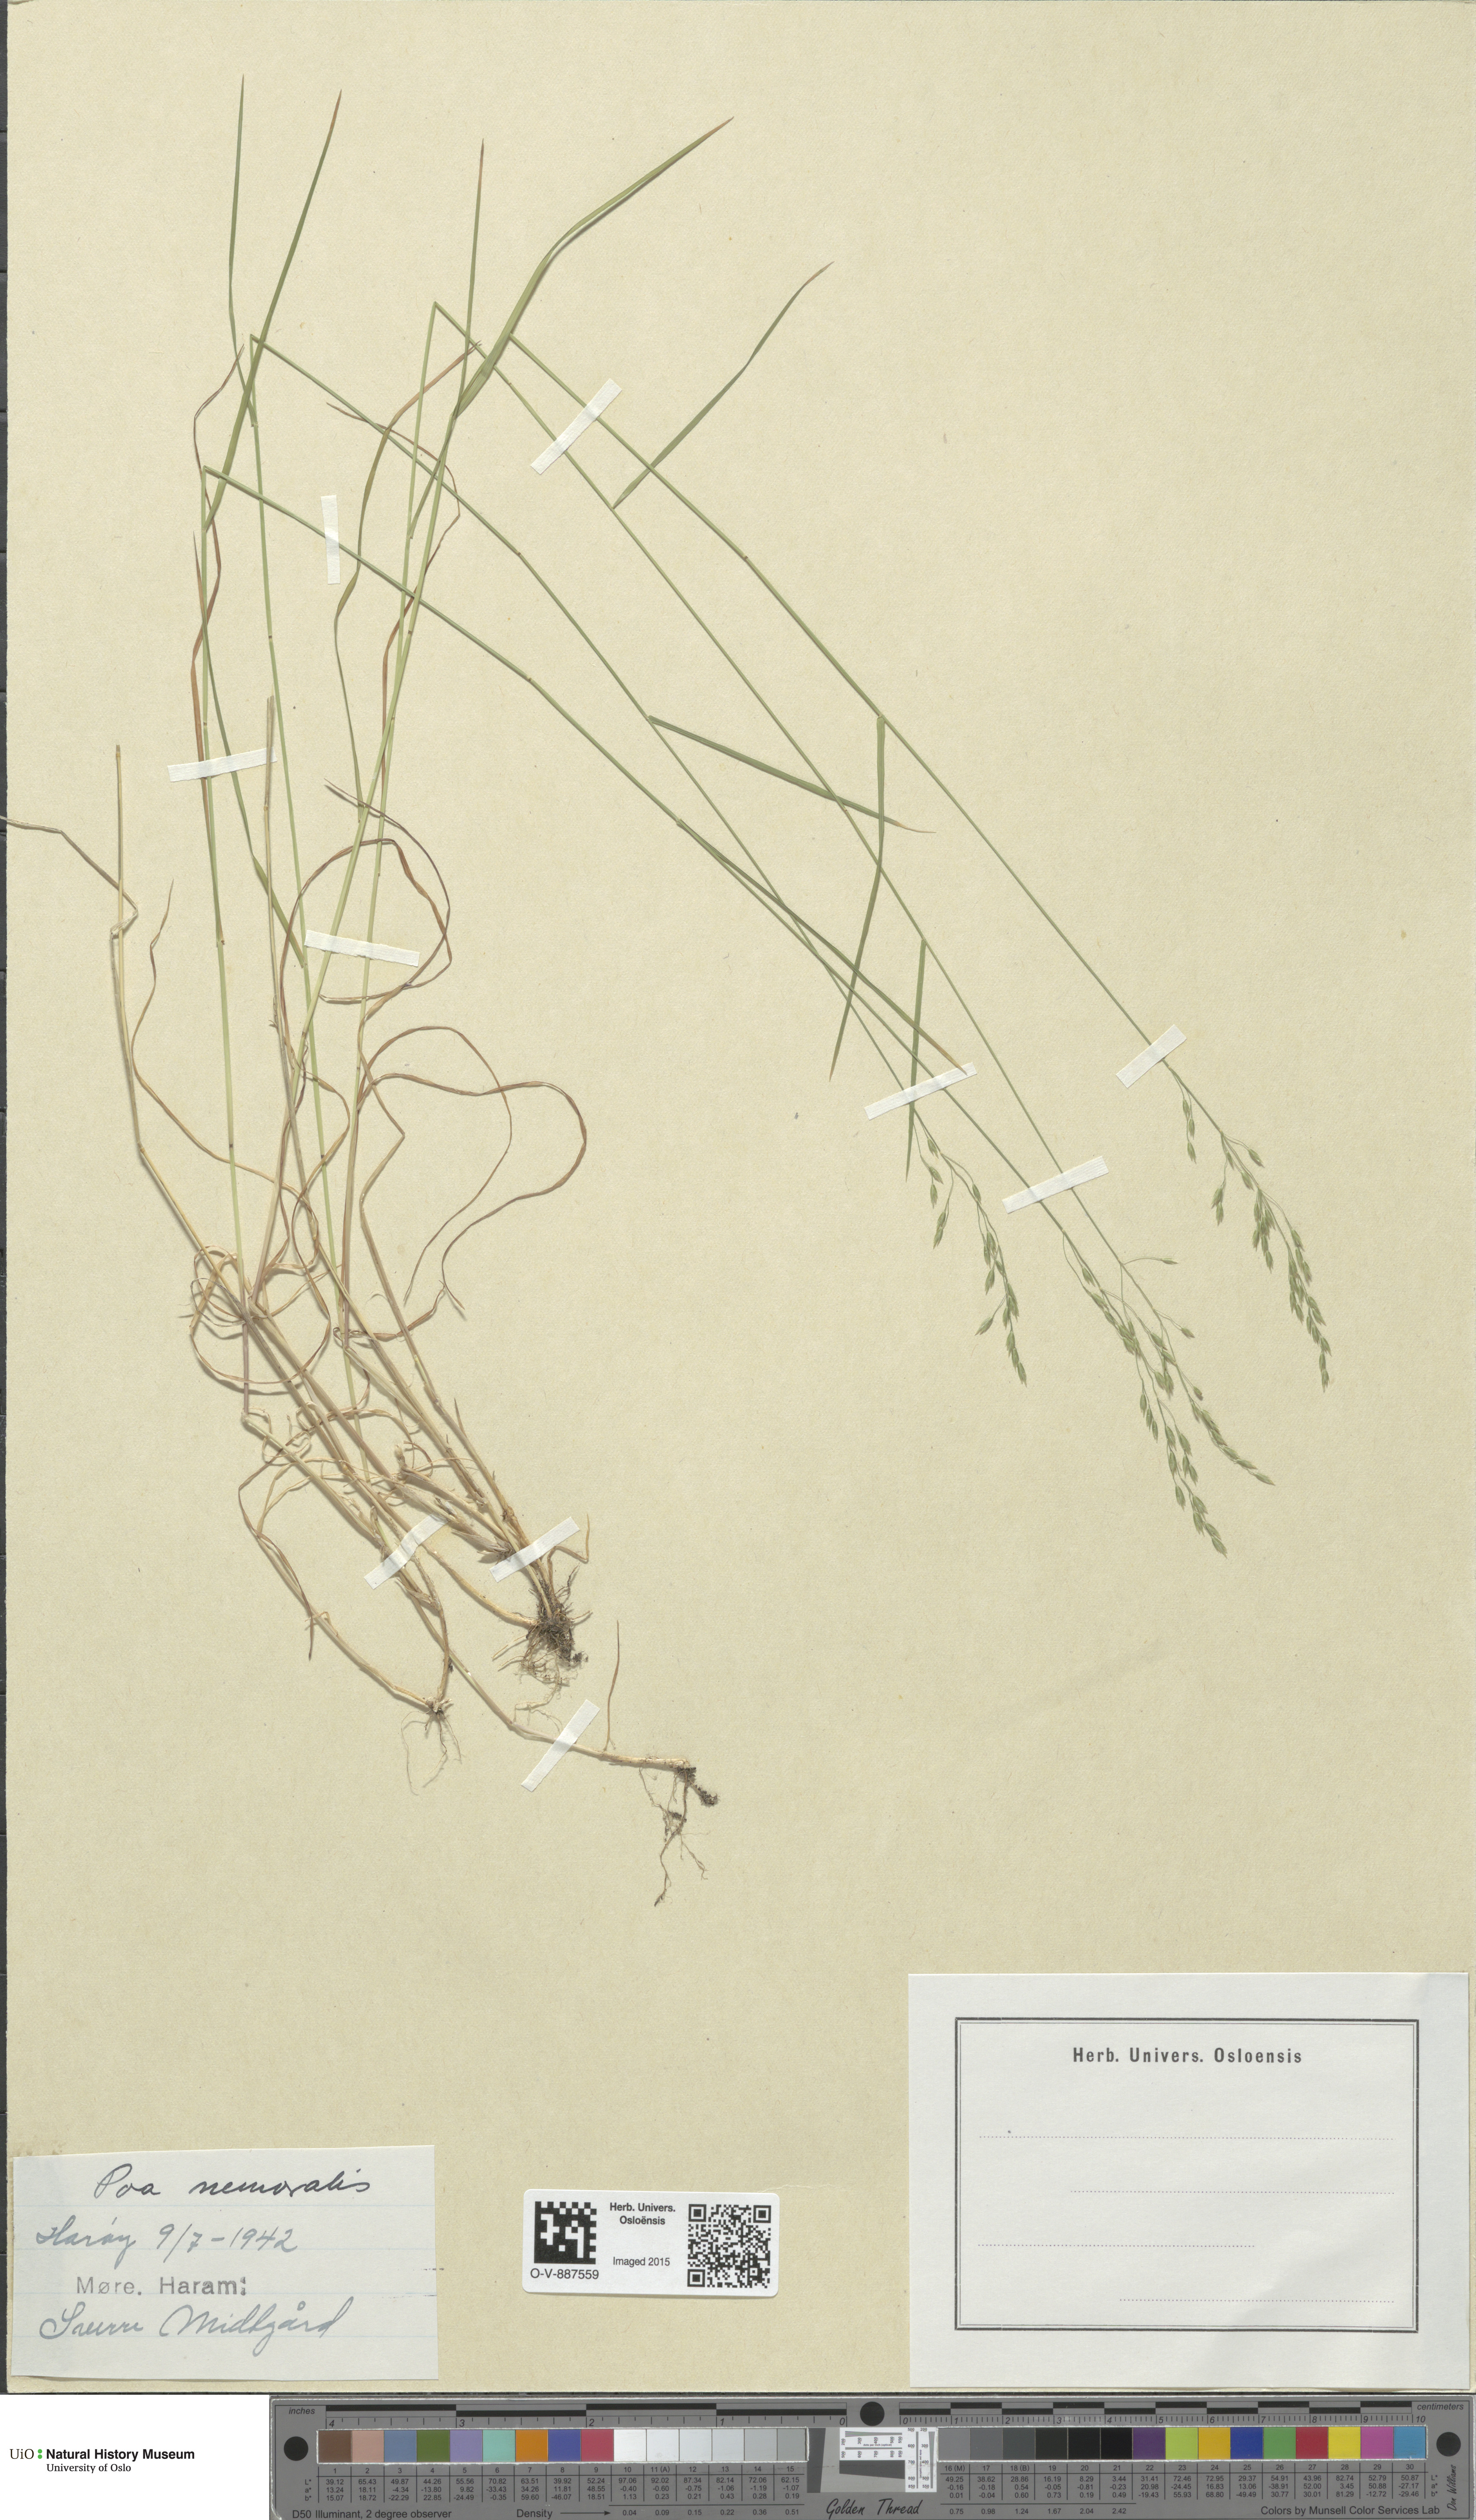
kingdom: Plantae
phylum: Tracheophyta
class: Liliopsida
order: Poales
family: Poaceae
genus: Poa
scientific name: Poa nemoralis
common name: Wood bluegrass
